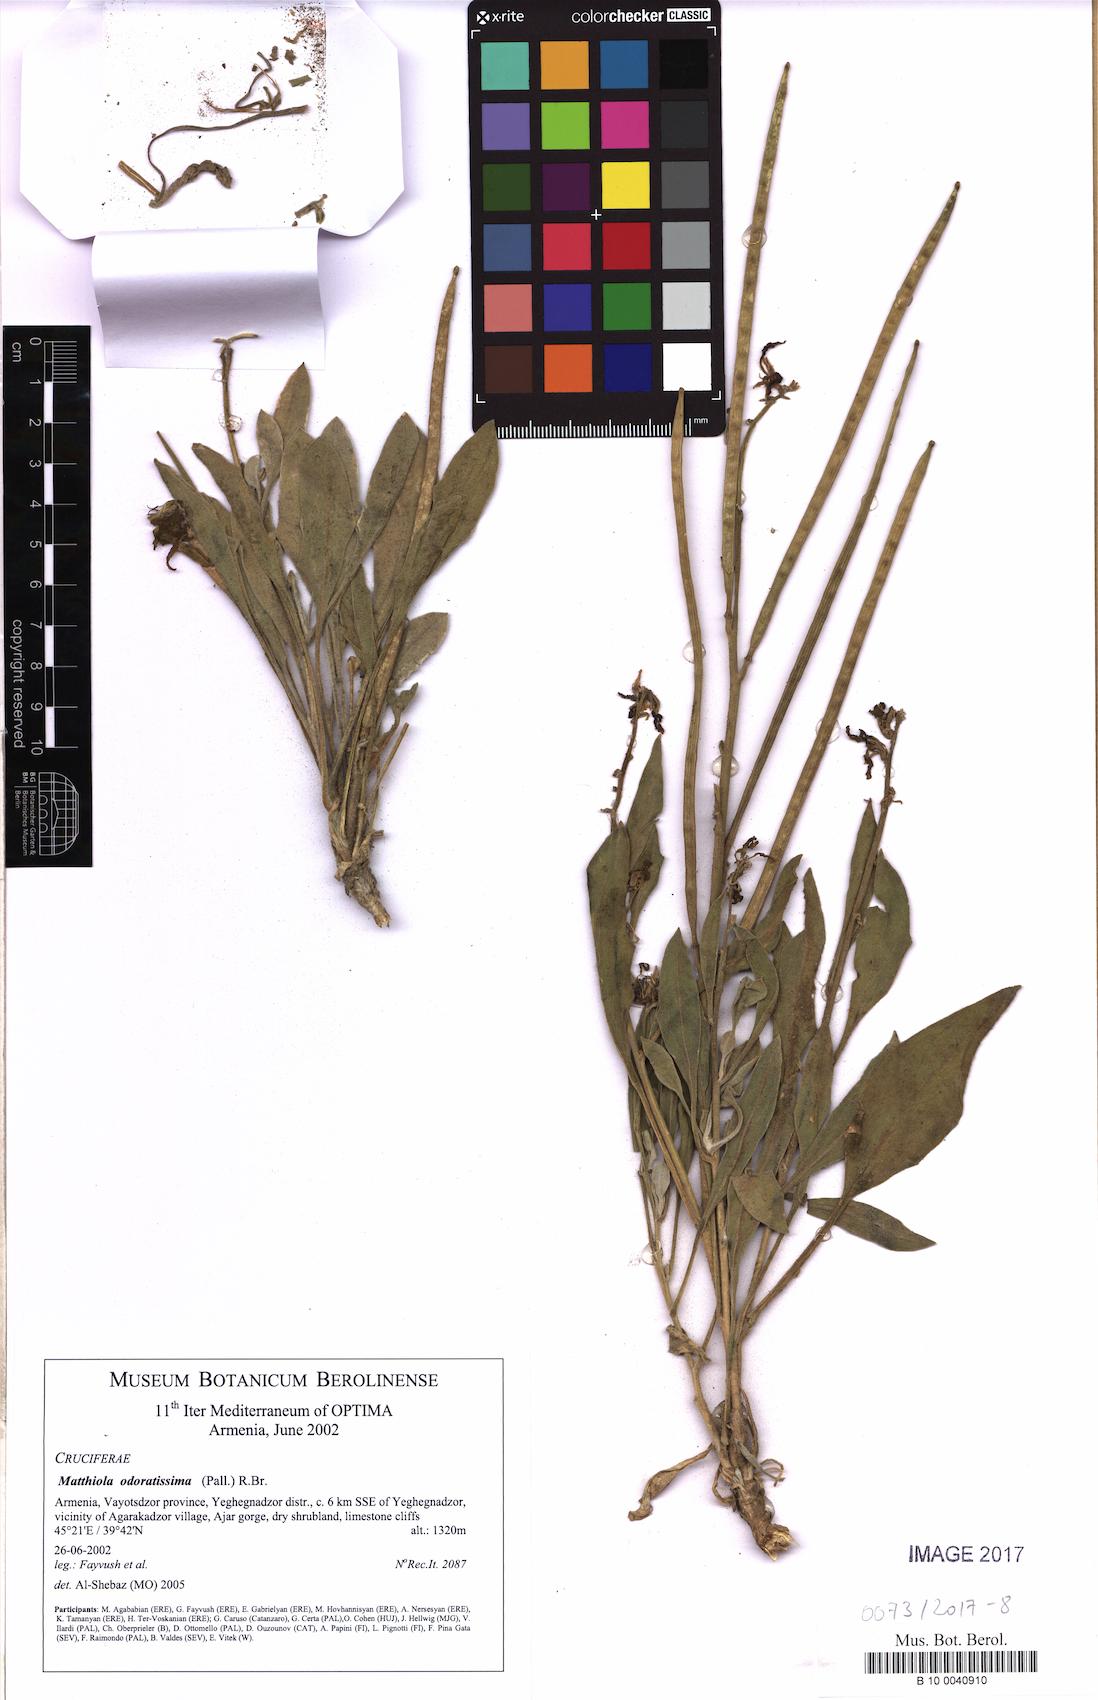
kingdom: Plantae
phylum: Tracheophyta
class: Magnoliopsida
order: Brassicales
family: Brassicaceae
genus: Matthiola
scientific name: Matthiola odoratissima
